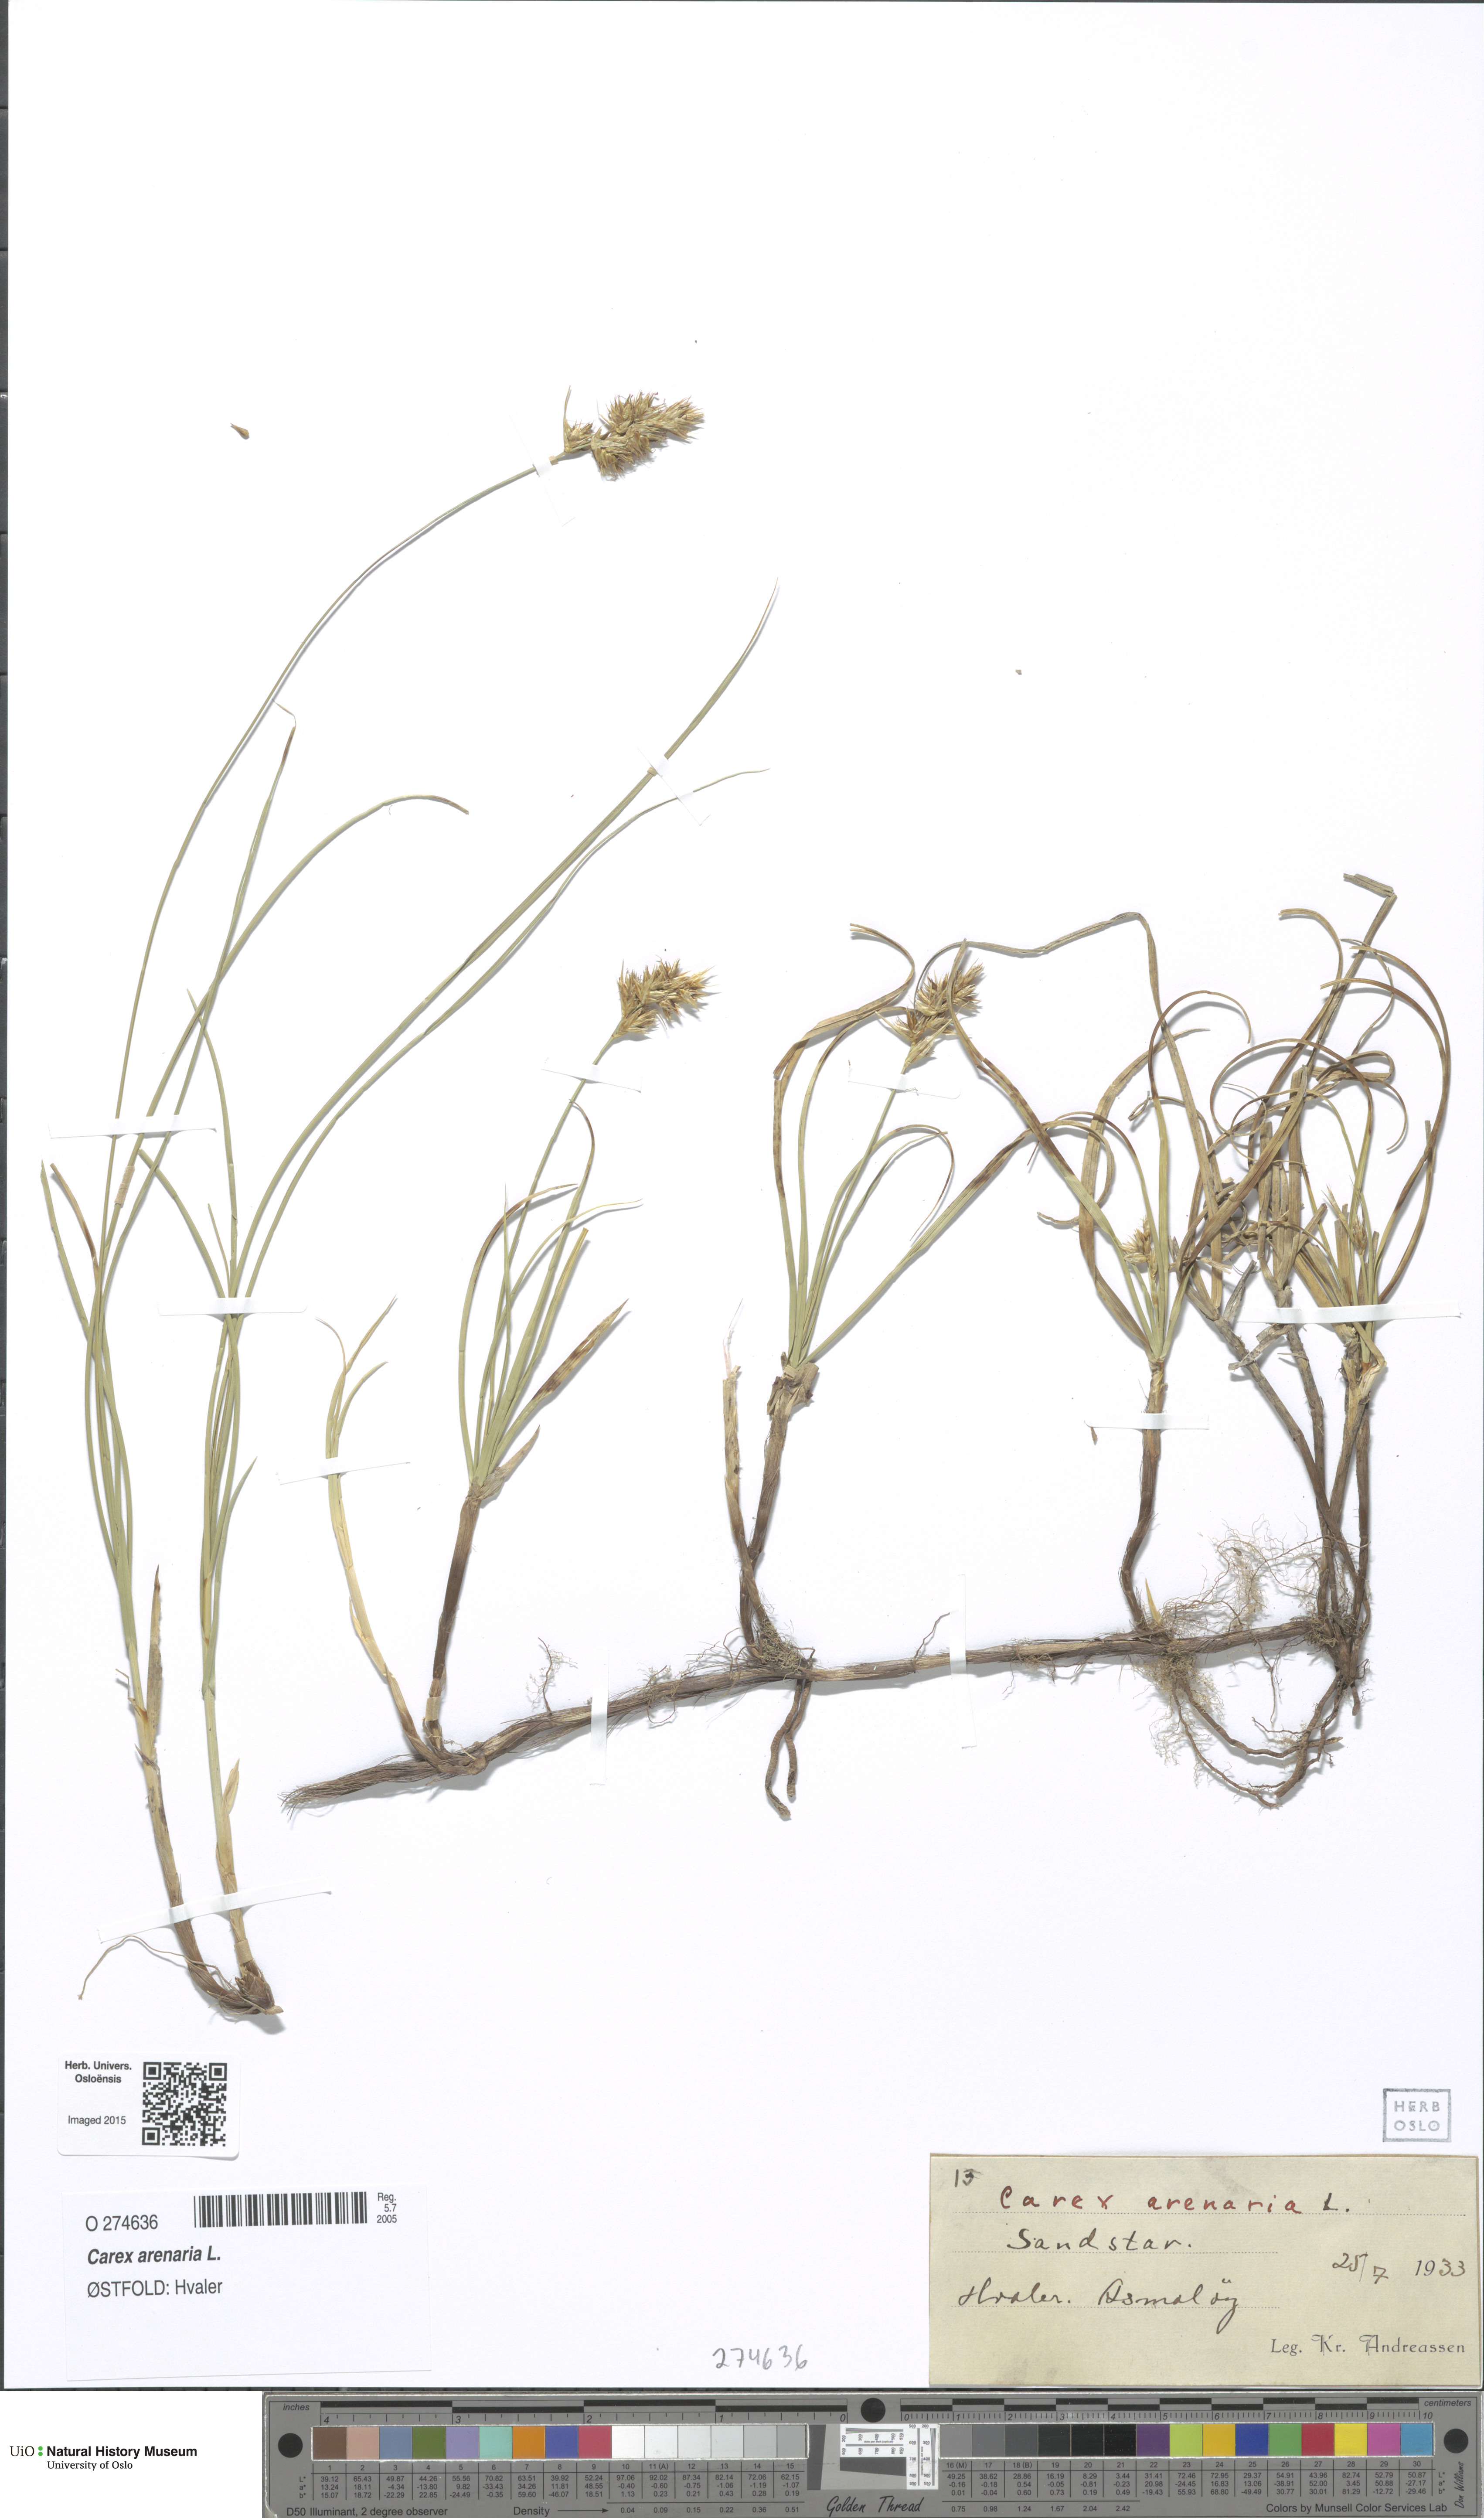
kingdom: Plantae
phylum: Tracheophyta
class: Liliopsida
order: Poales
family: Cyperaceae
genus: Carex
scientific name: Carex arenaria
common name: Sand sedge
